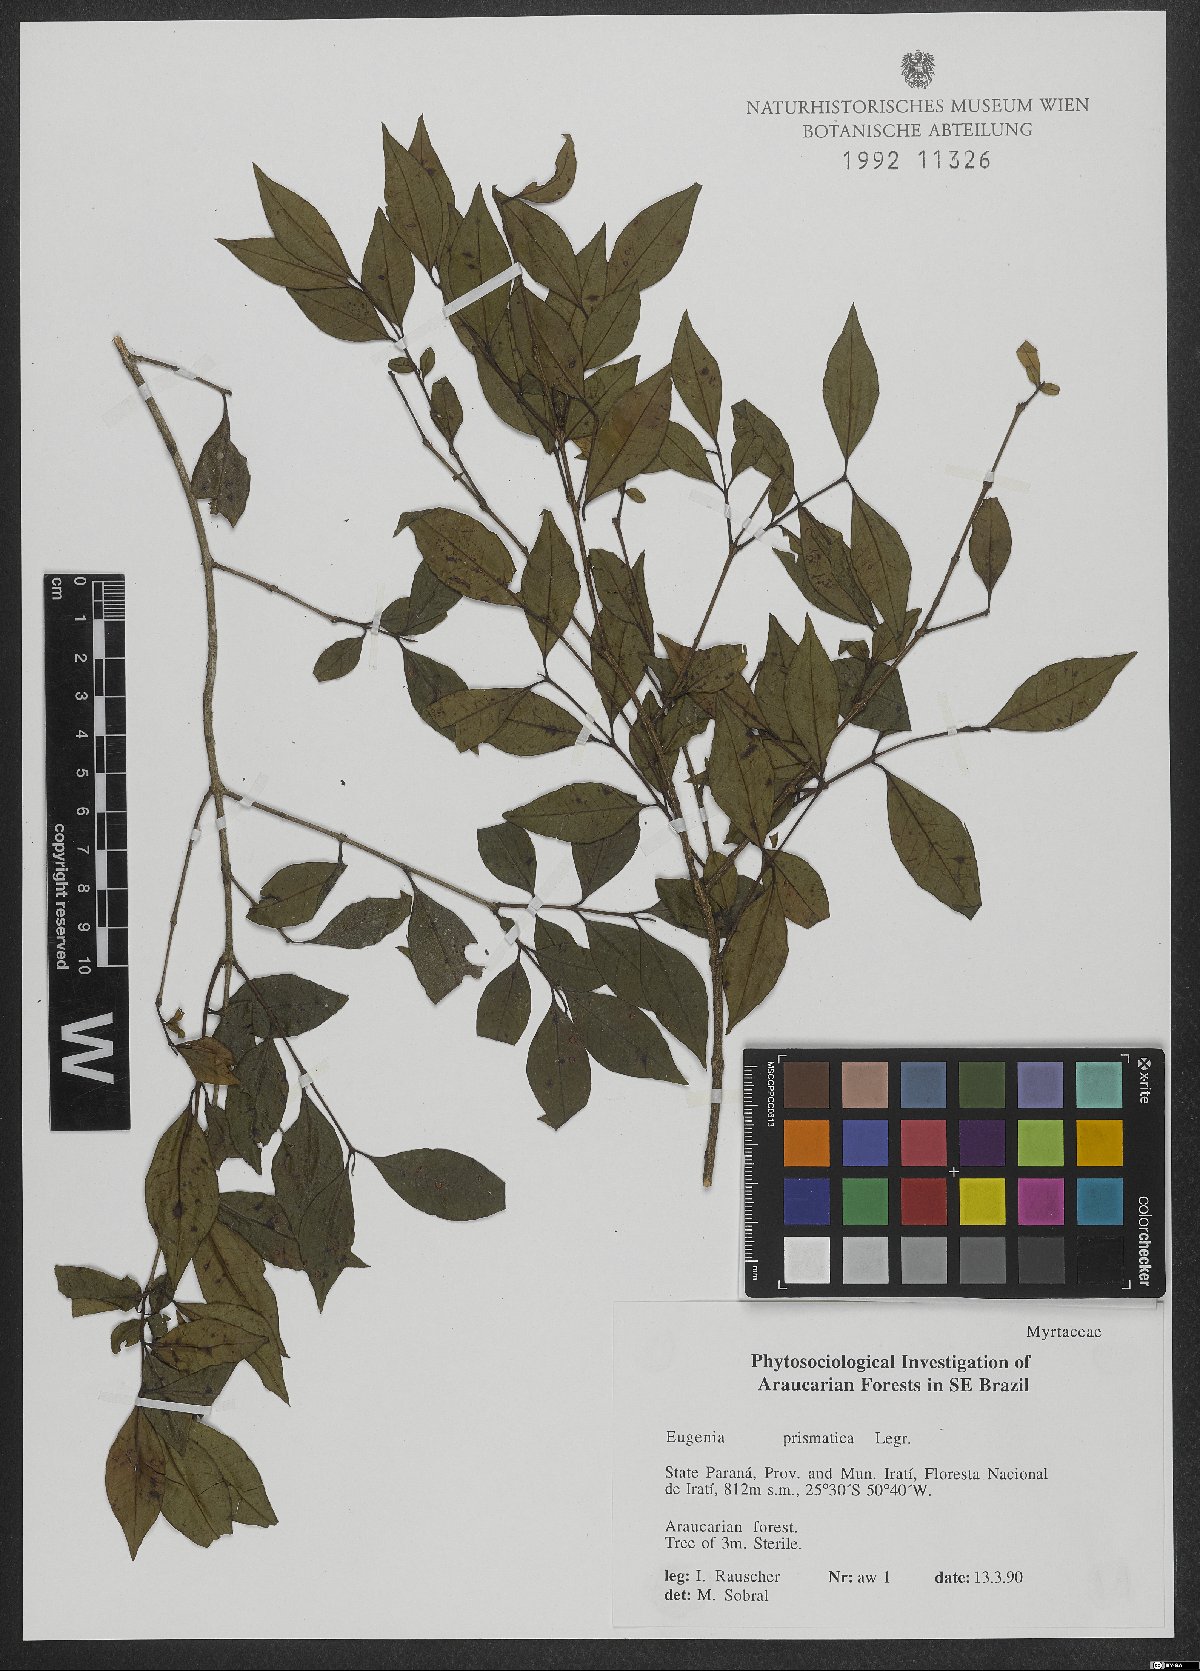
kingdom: Plantae
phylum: Tracheophyta
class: Magnoliopsida
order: Myrtales
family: Myrtaceae
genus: Curitiba
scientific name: Curitiba prismatica
